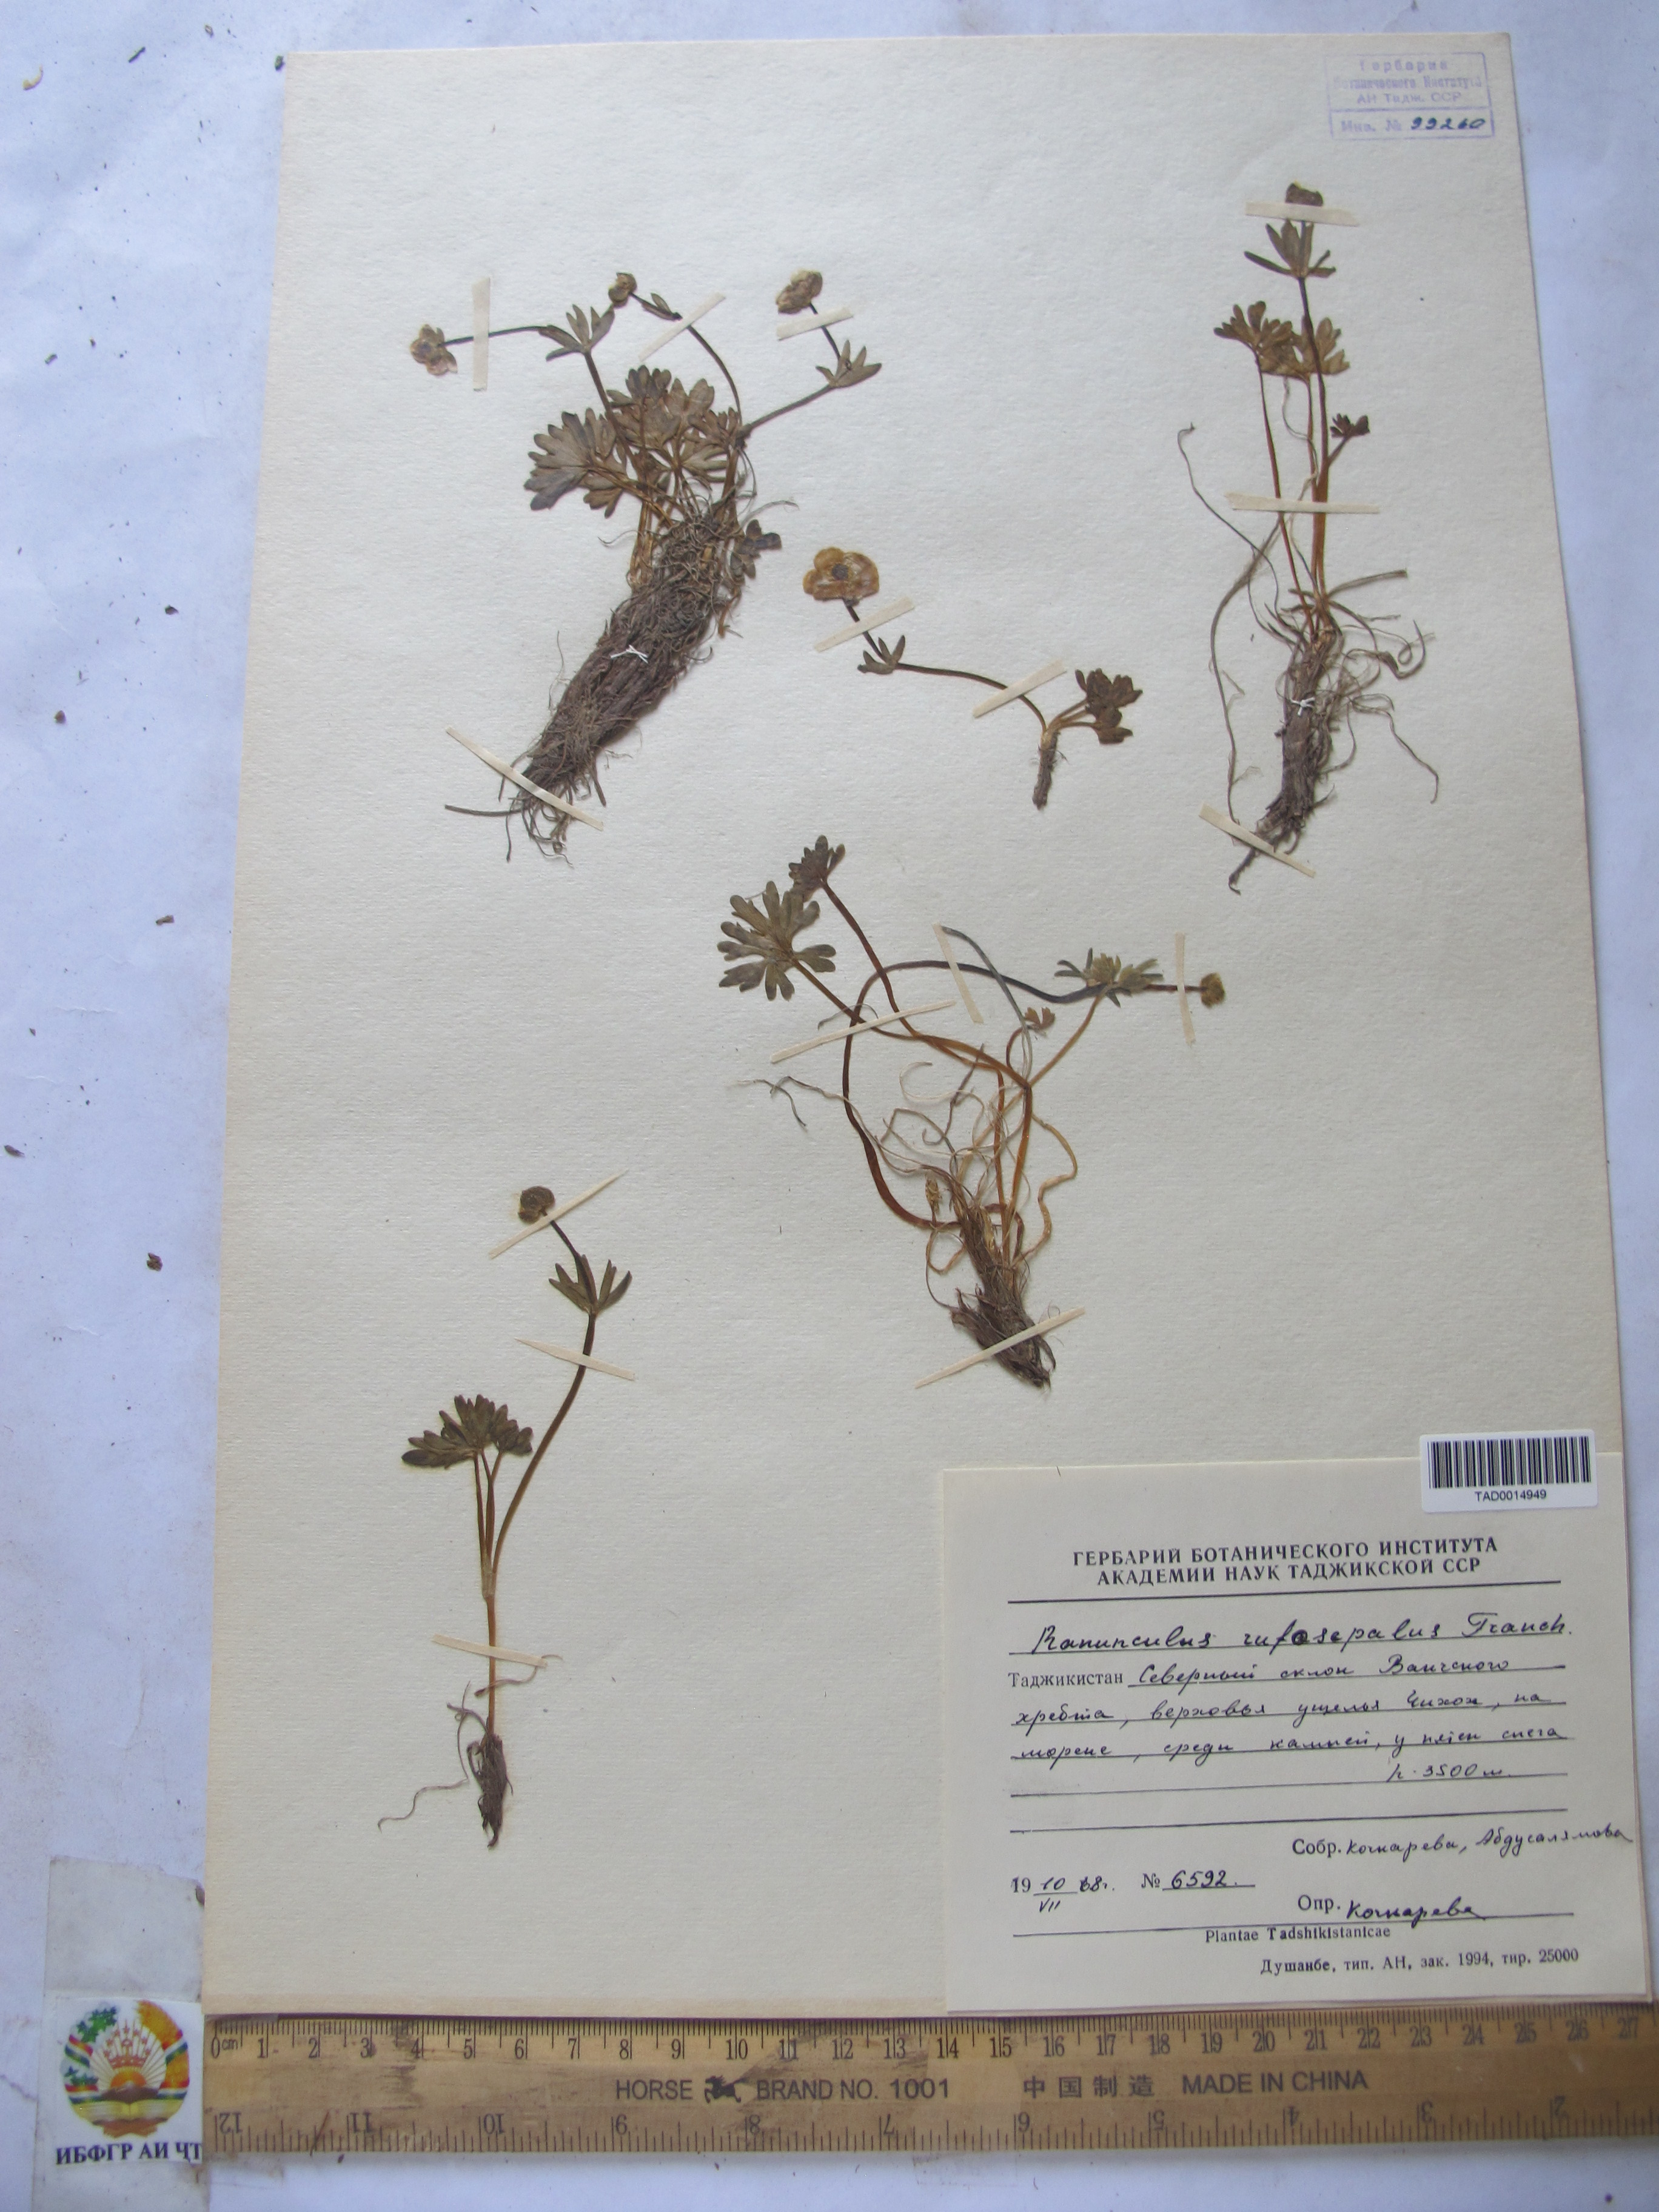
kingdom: Plantae
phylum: Tracheophyta
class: Magnoliopsida
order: Ranunculales
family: Ranunculaceae
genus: Ranunculus
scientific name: Ranunculus rufosepalus
